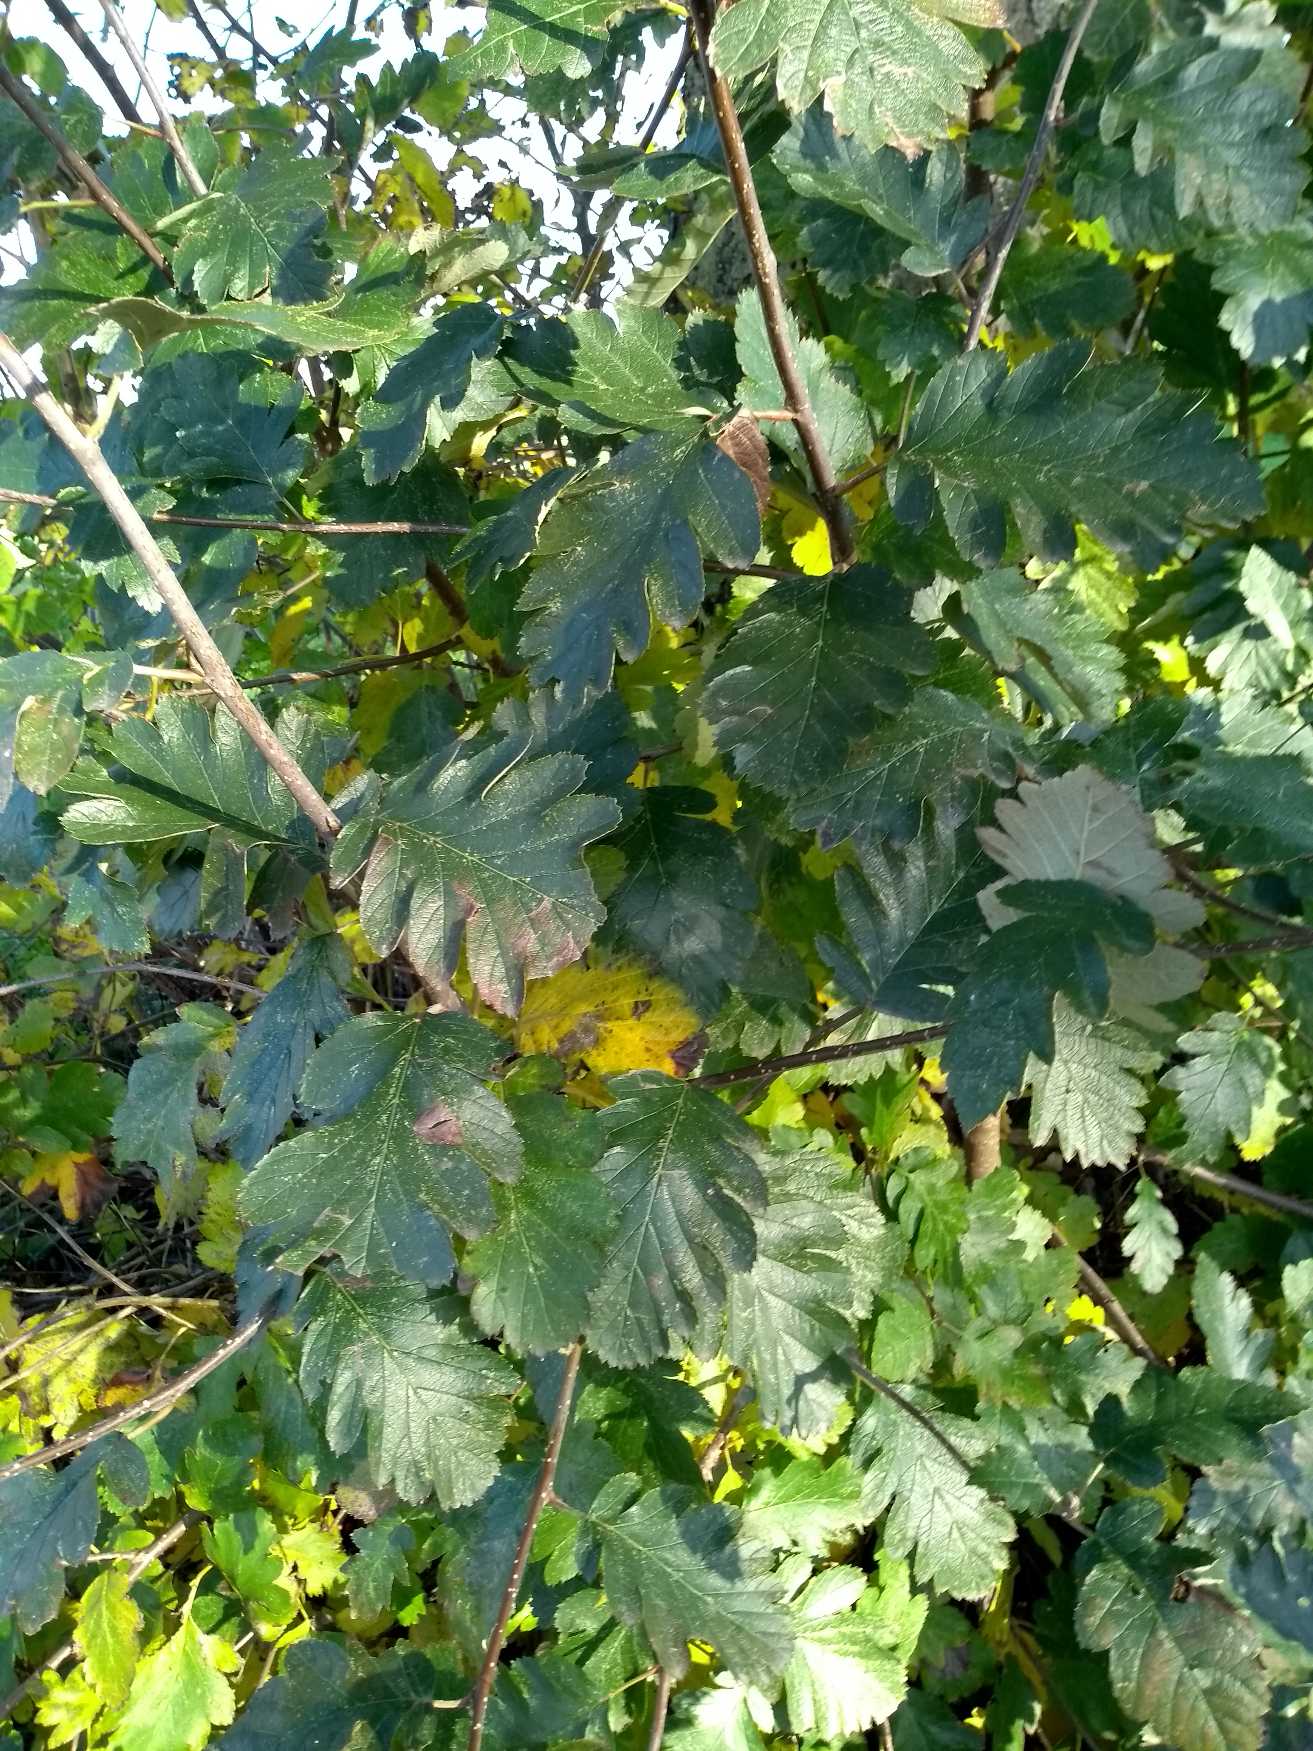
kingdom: Plantae
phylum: Tracheophyta
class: Magnoliopsida
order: Rosales
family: Rosaceae
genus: Hedlundia
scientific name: Hedlundia austriaca
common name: Østrigsk røn
